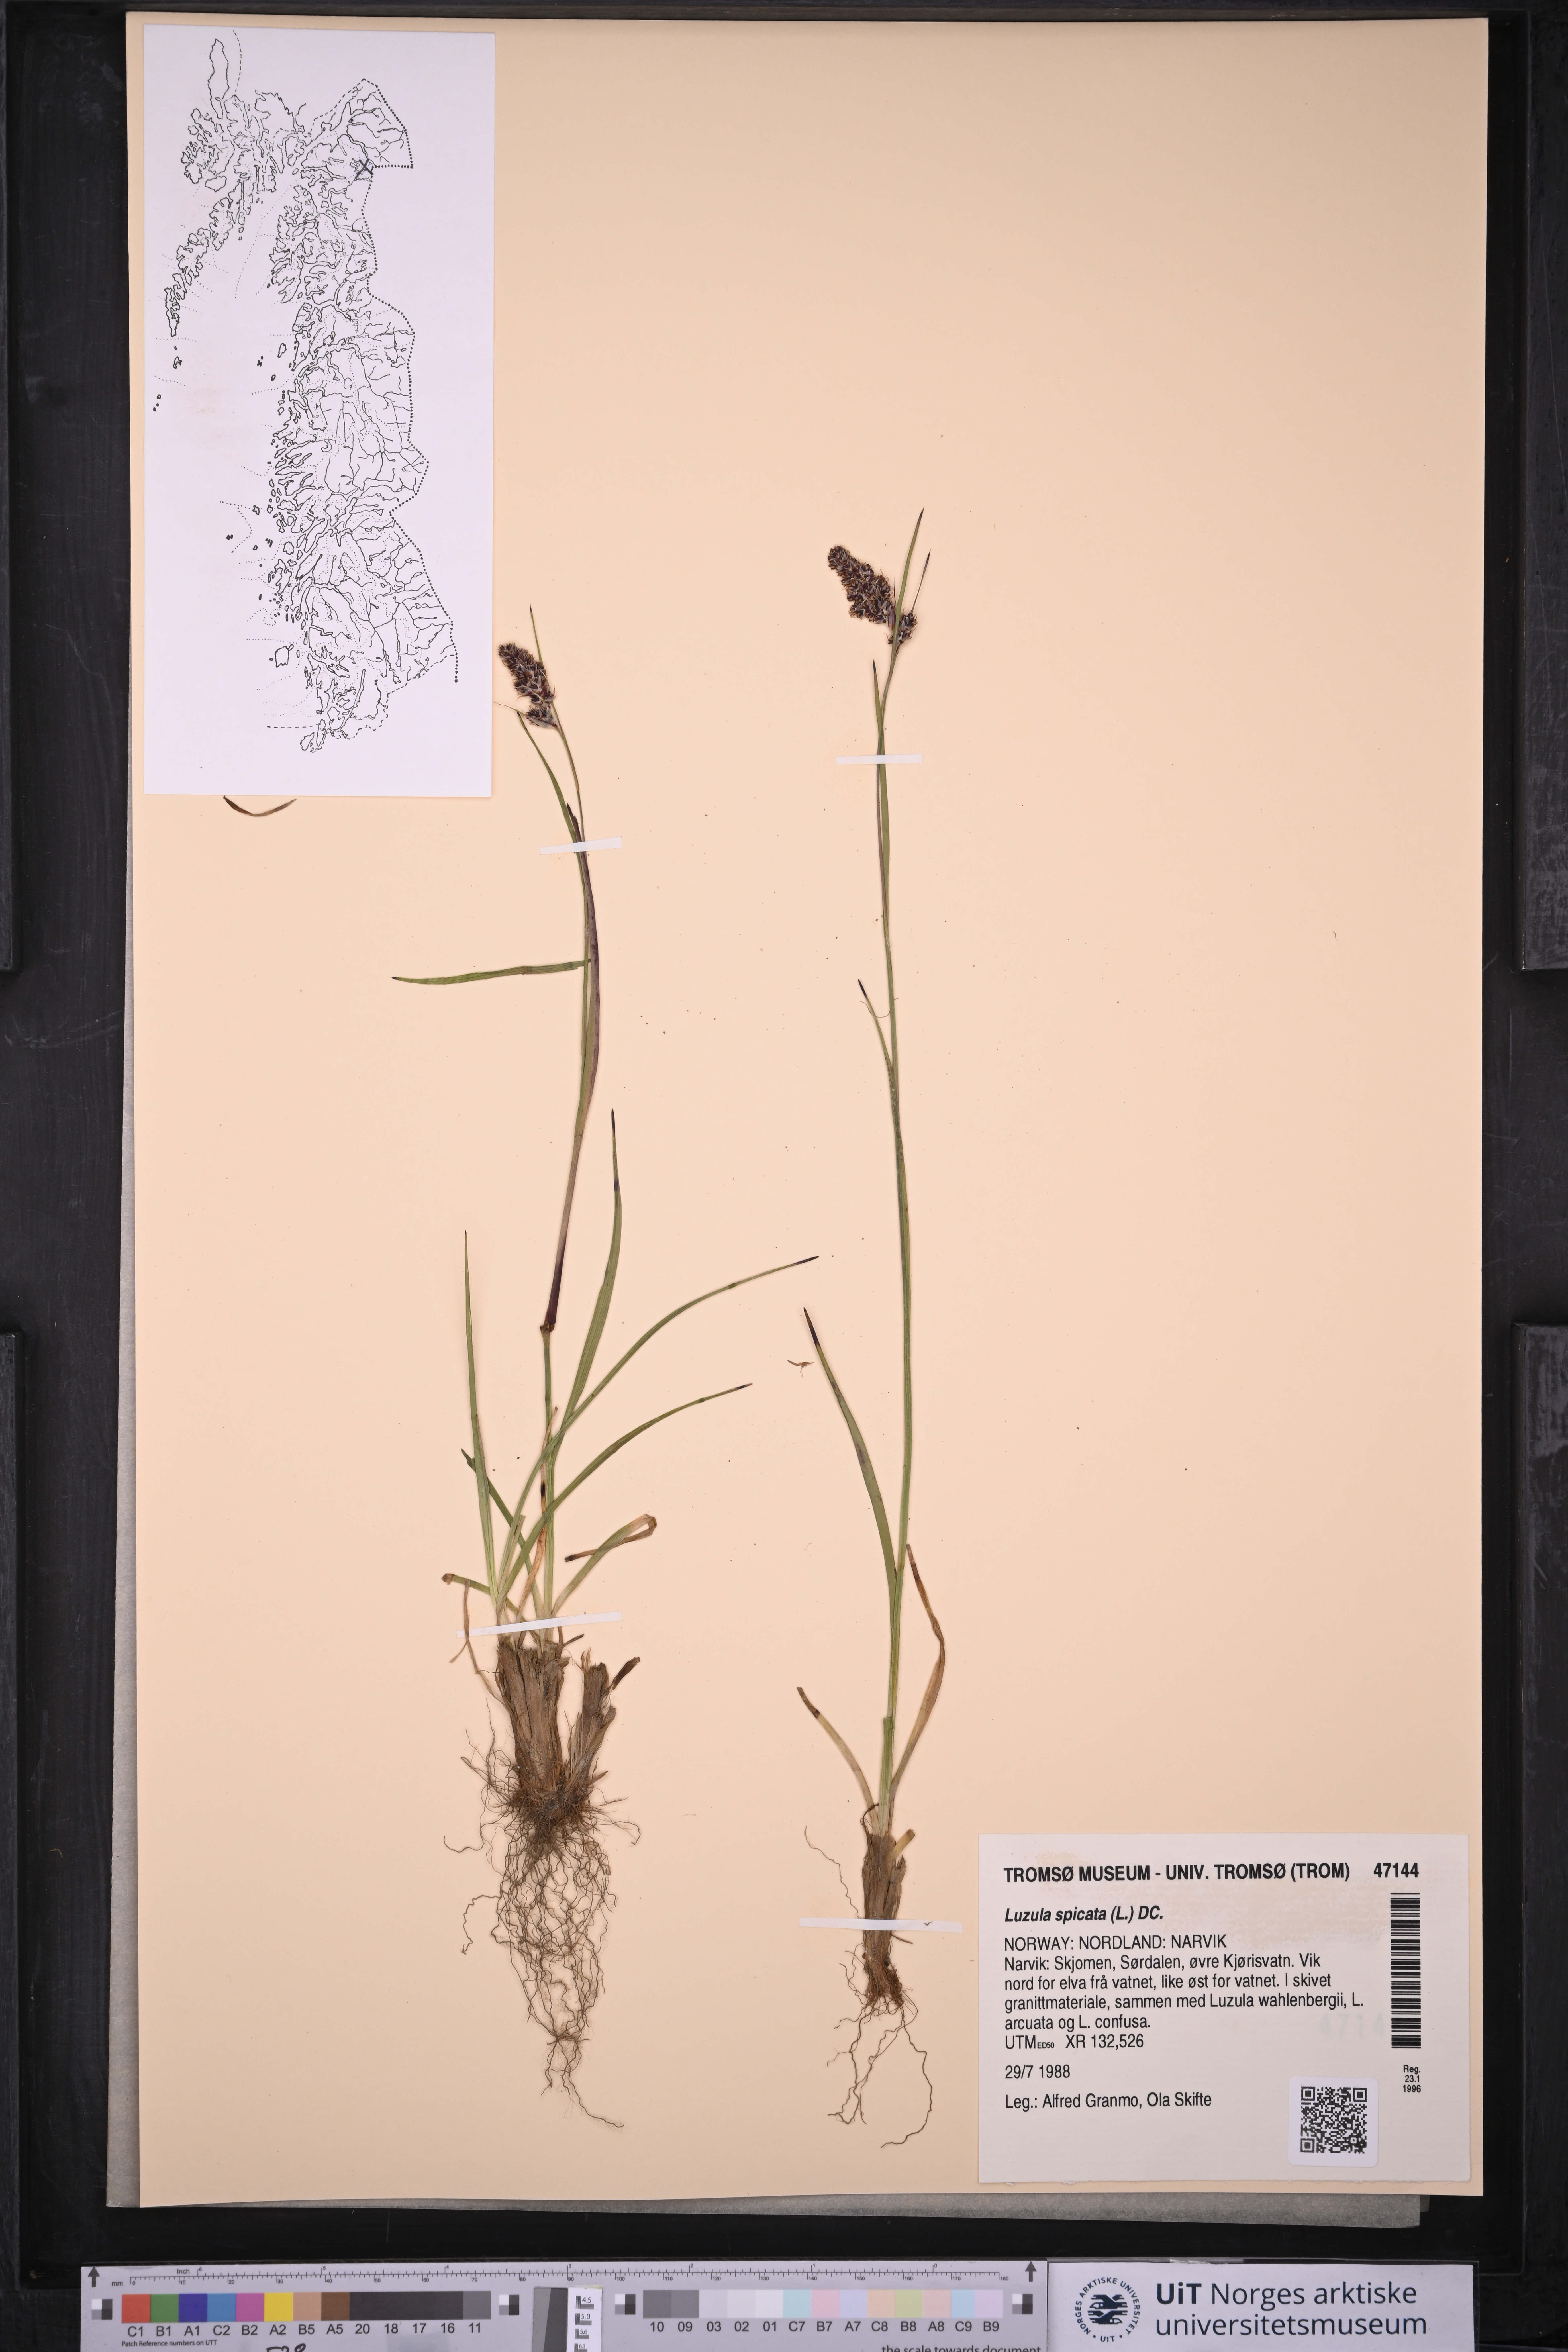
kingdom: Plantae
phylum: Tracheophyta
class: Liliopsida
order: Poales
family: Juncaceae
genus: Luzula
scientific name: Luzula spicata
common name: Spiked wood-rush
